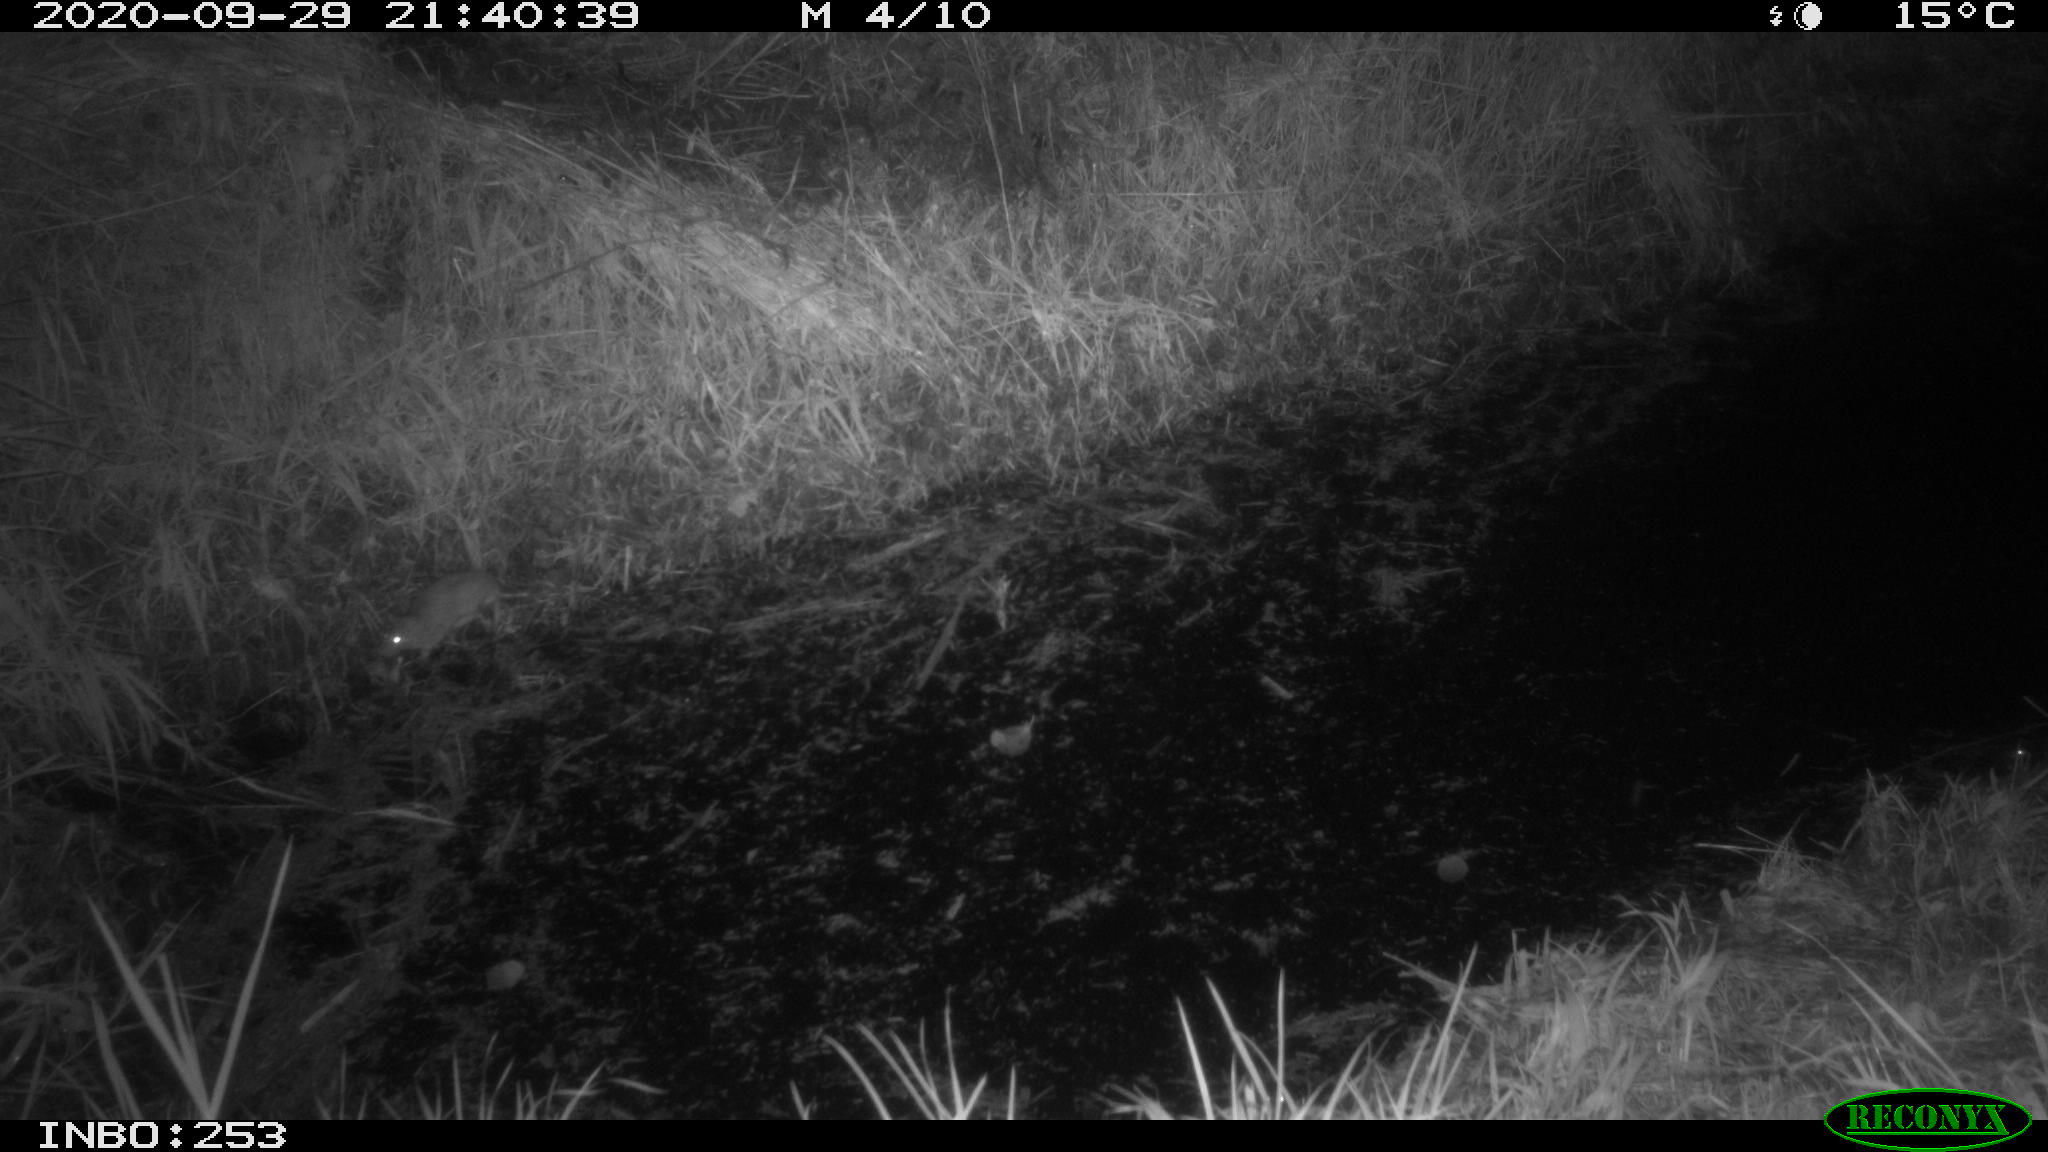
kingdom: Animalia
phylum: Chordata
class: Mammalia
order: Rodentia
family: Muridae
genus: Rattus
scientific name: Rattus norvegicus
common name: Brown rat
